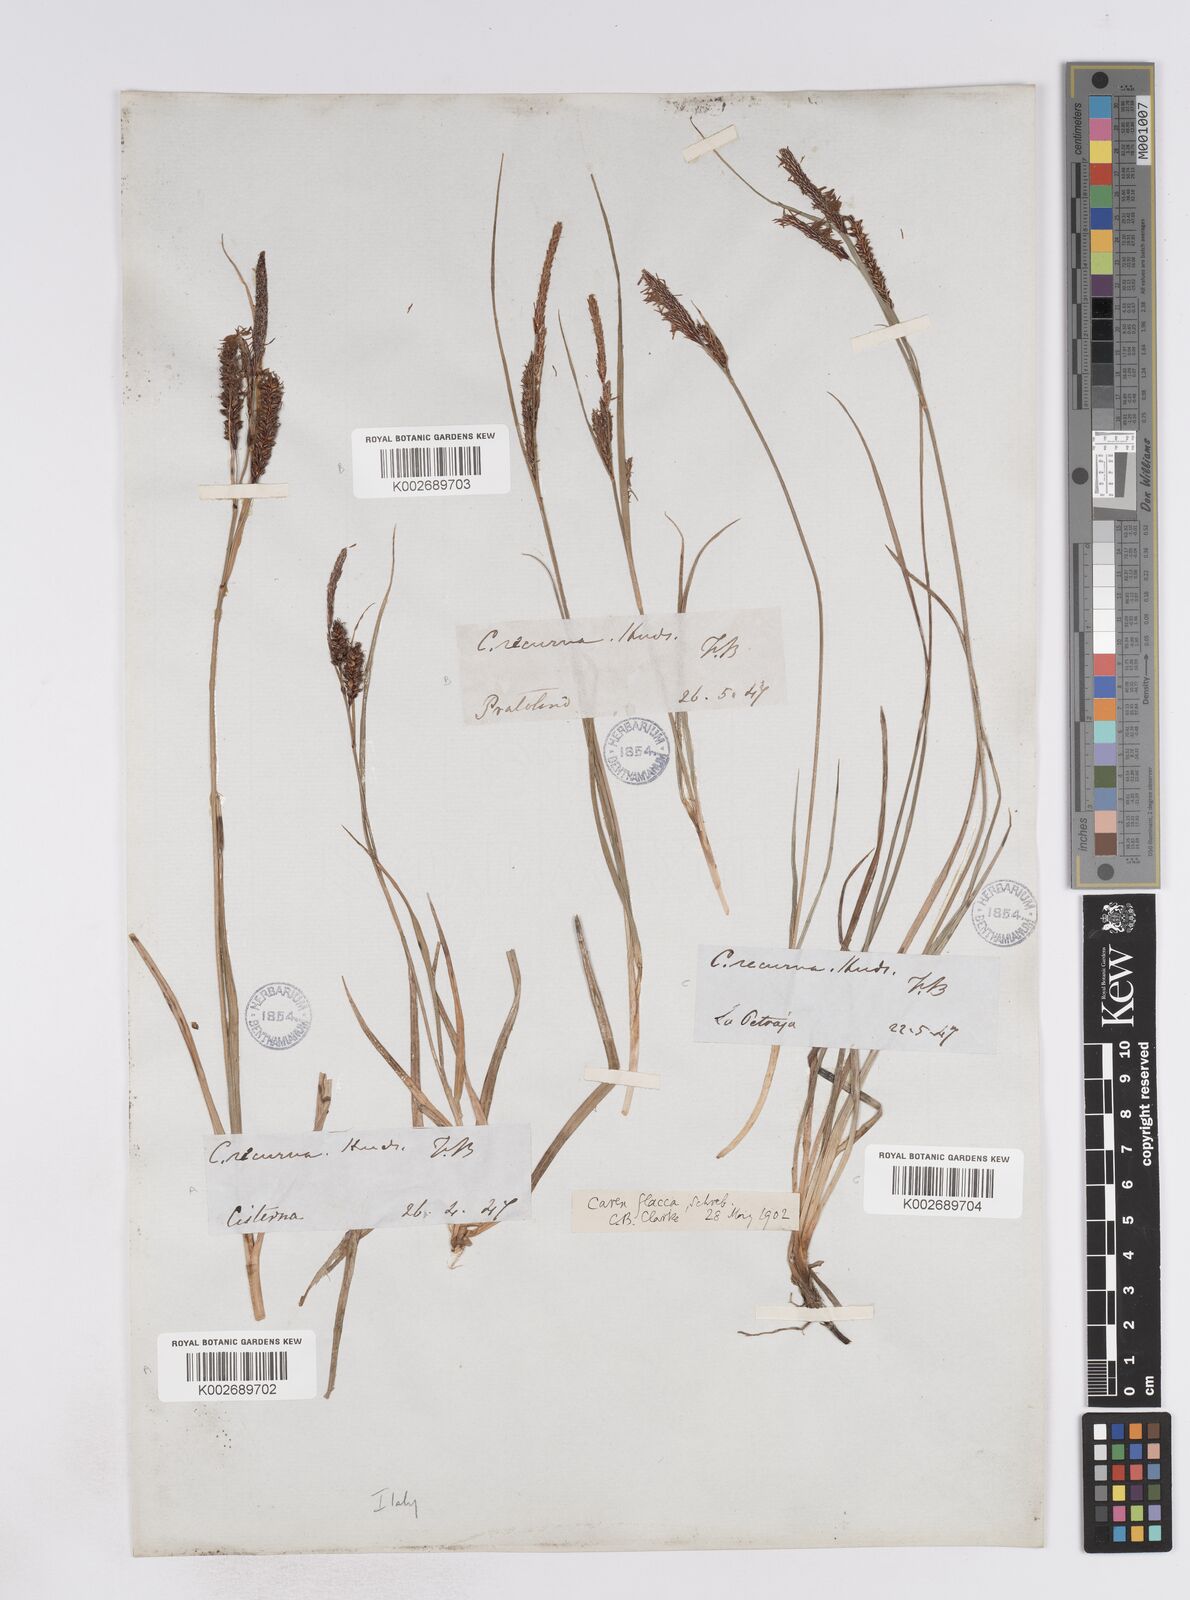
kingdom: Plantae
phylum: Tracheophyta
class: Liliopsida
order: Poales
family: Cyperaceae
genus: Carex
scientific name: Carex flacca
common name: Glaucous sedge
